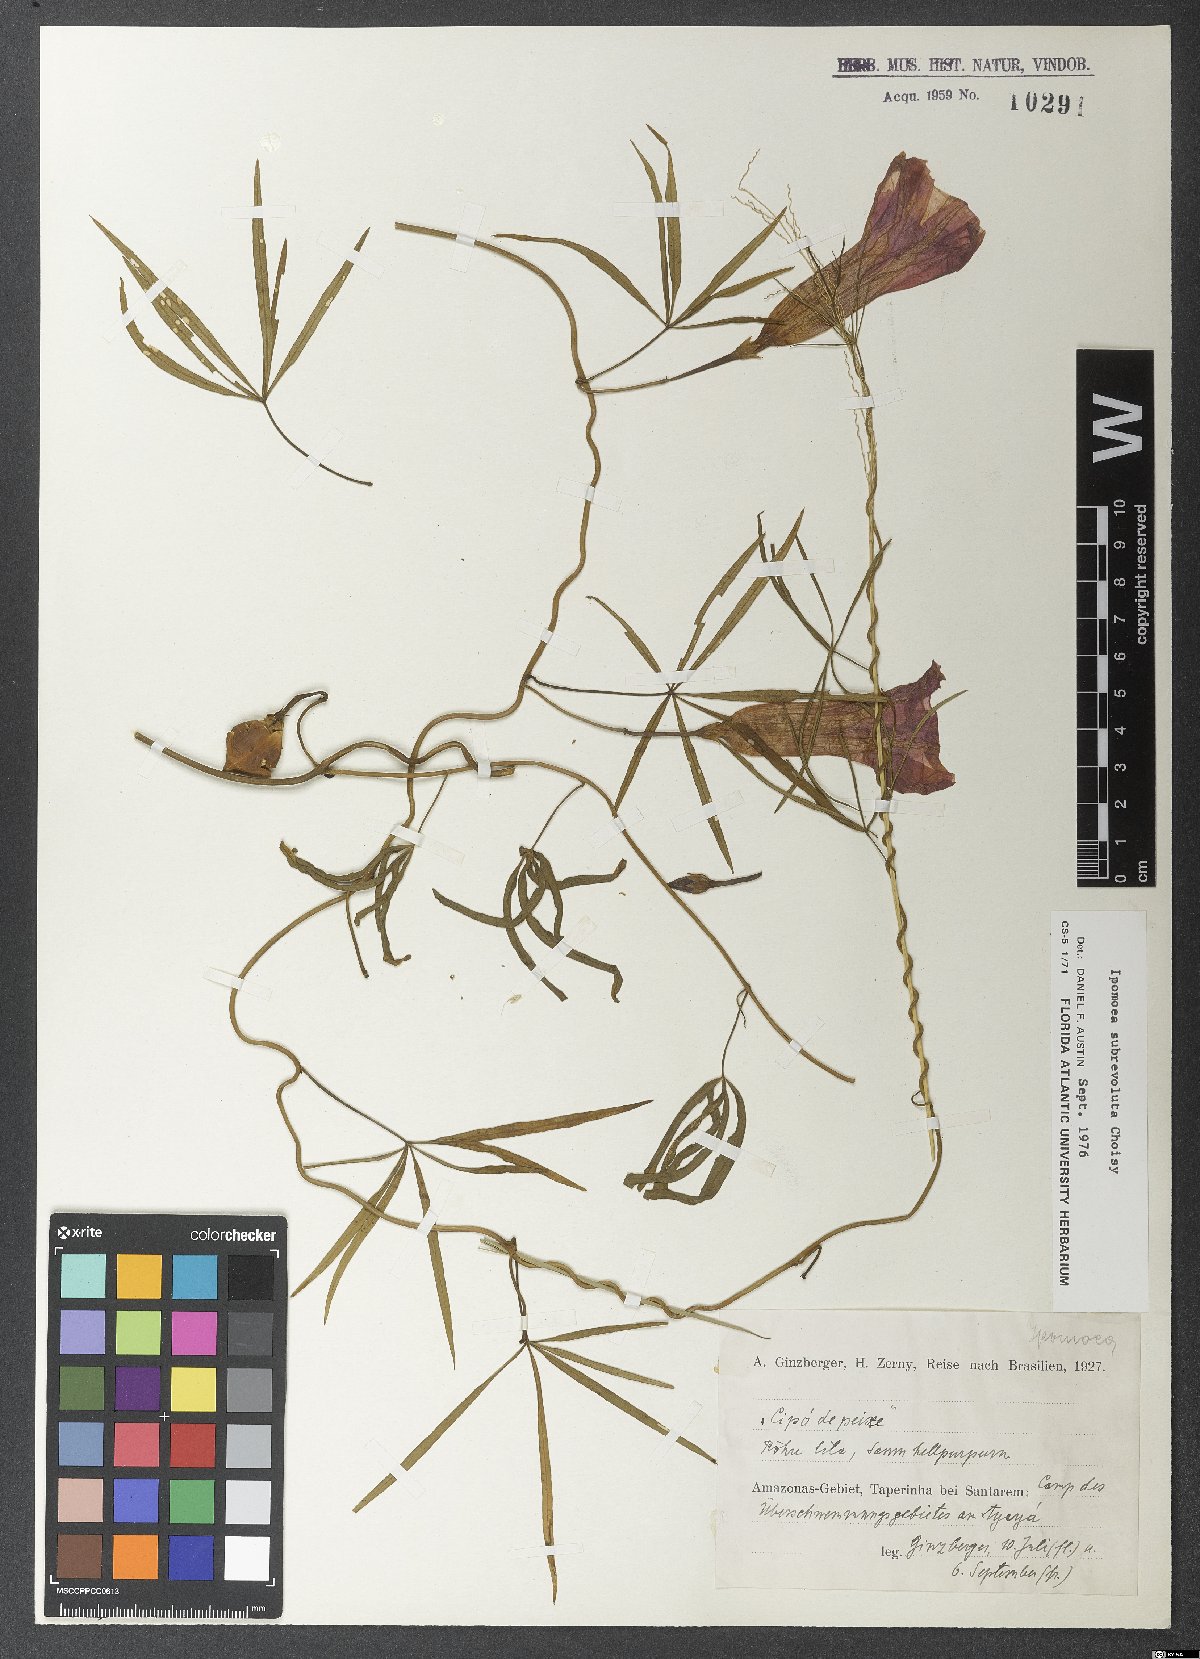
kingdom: Plantae
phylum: Tracheophyta
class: Magnoliopsida
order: Solanales
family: Convolvulaceae
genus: Ipomoea
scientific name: Ipomoea subrevoluta
